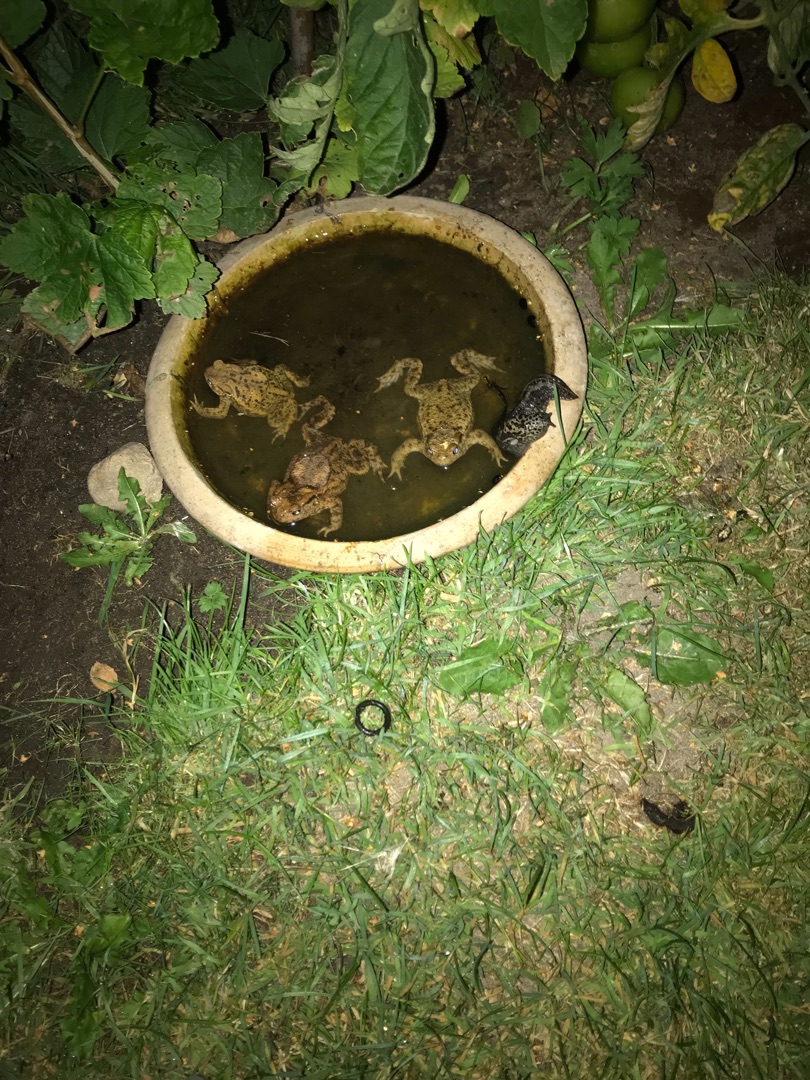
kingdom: Animalia
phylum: Chordata
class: Amphibia
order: Anura
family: Bufonidae
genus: Bufo
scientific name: Bufo bufo
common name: Skrubtudse
